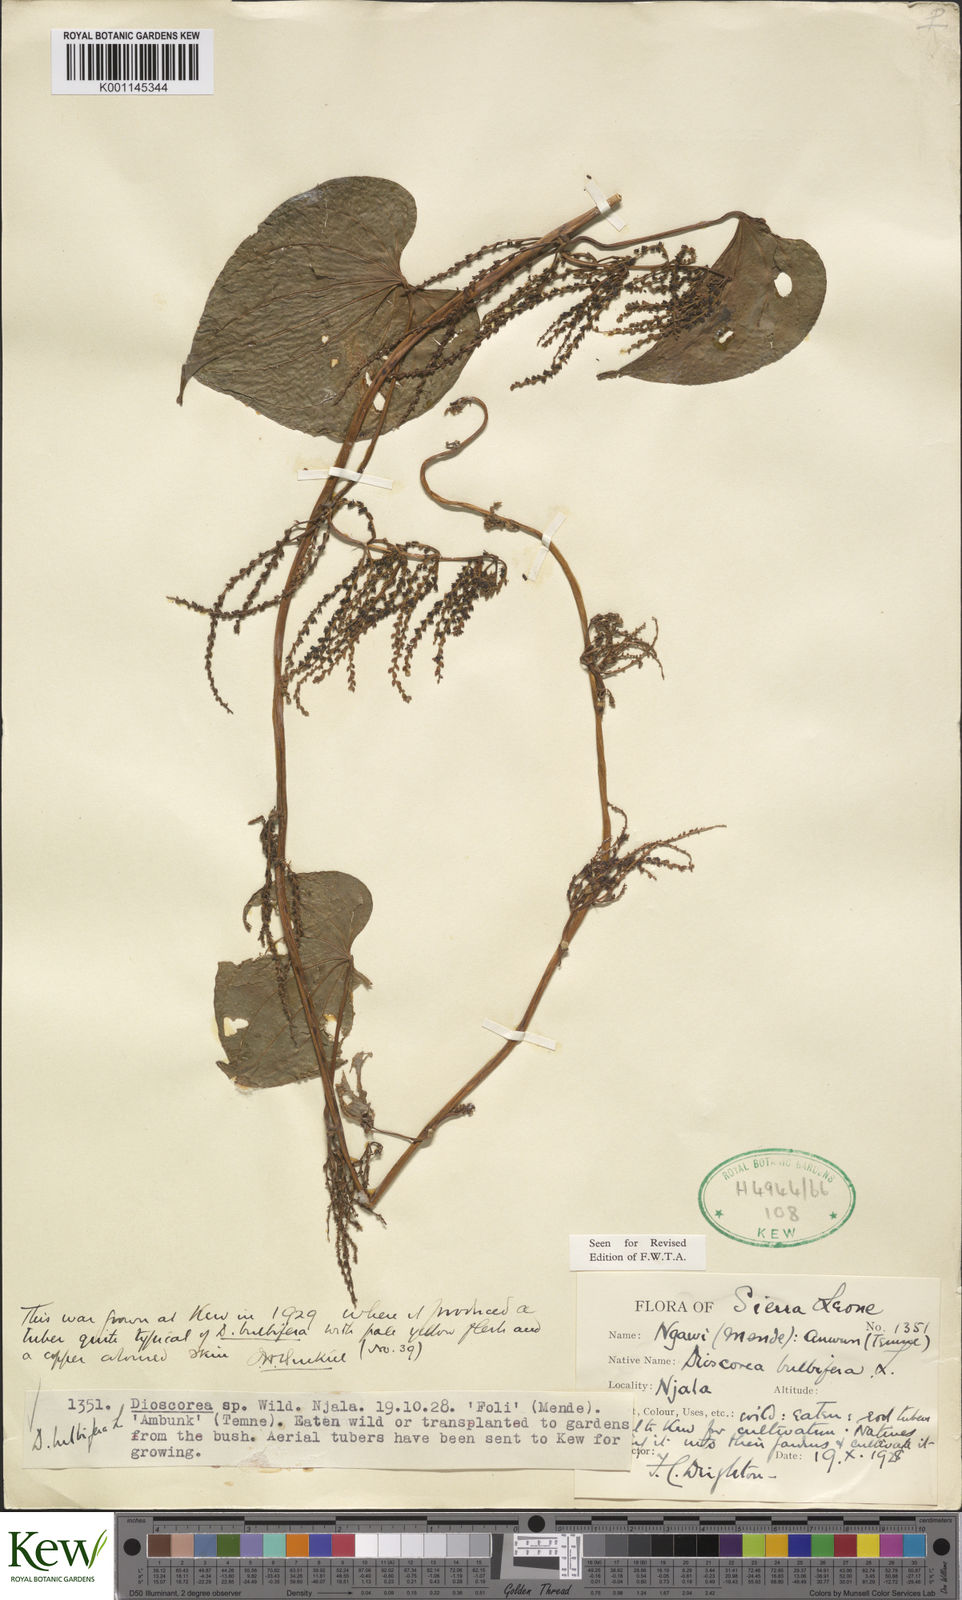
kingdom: Plantae
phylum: Tracheophyta
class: Liliopsida
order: Dioscoreales
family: Dioscoreaceae
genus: Dioscorea
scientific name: Dioscorea bulbifera
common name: Air yam
